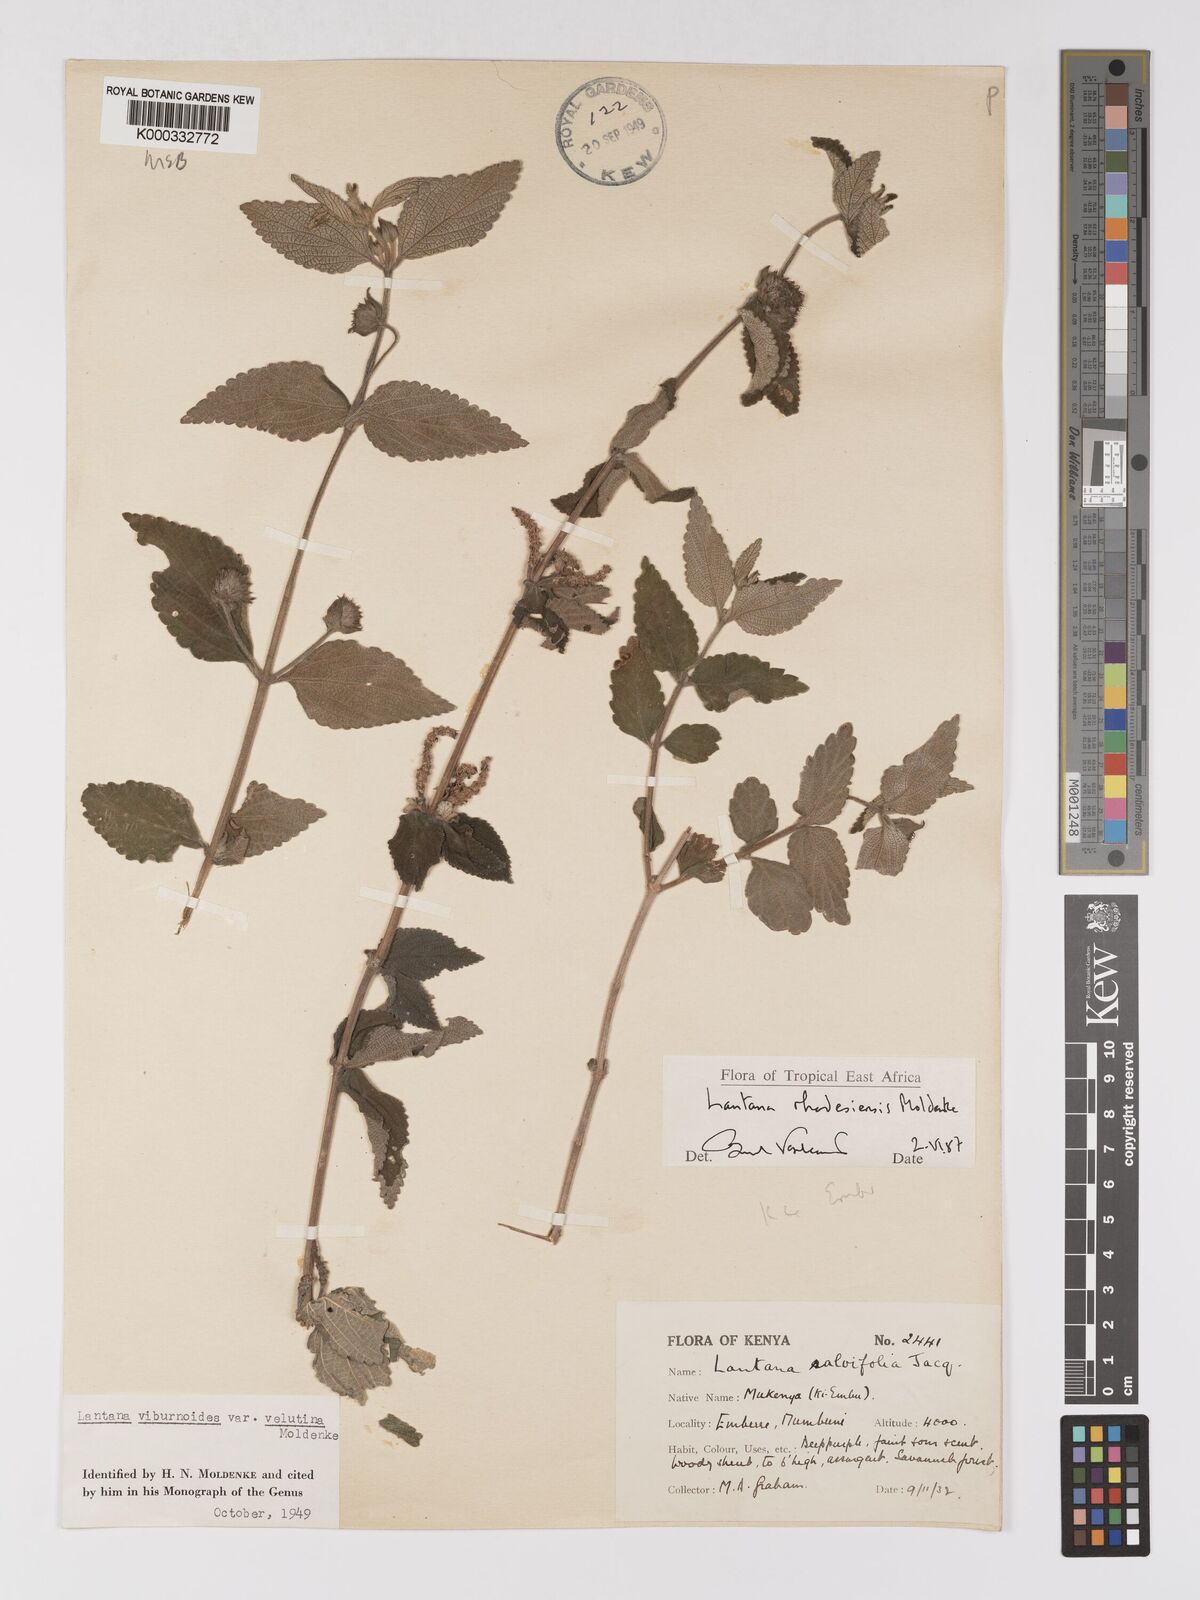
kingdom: Plantae
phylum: Tracheophyta
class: Magnoliopsida
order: Lamiales
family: Verbenaceae
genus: Lantana
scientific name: Lantana ukambensis
